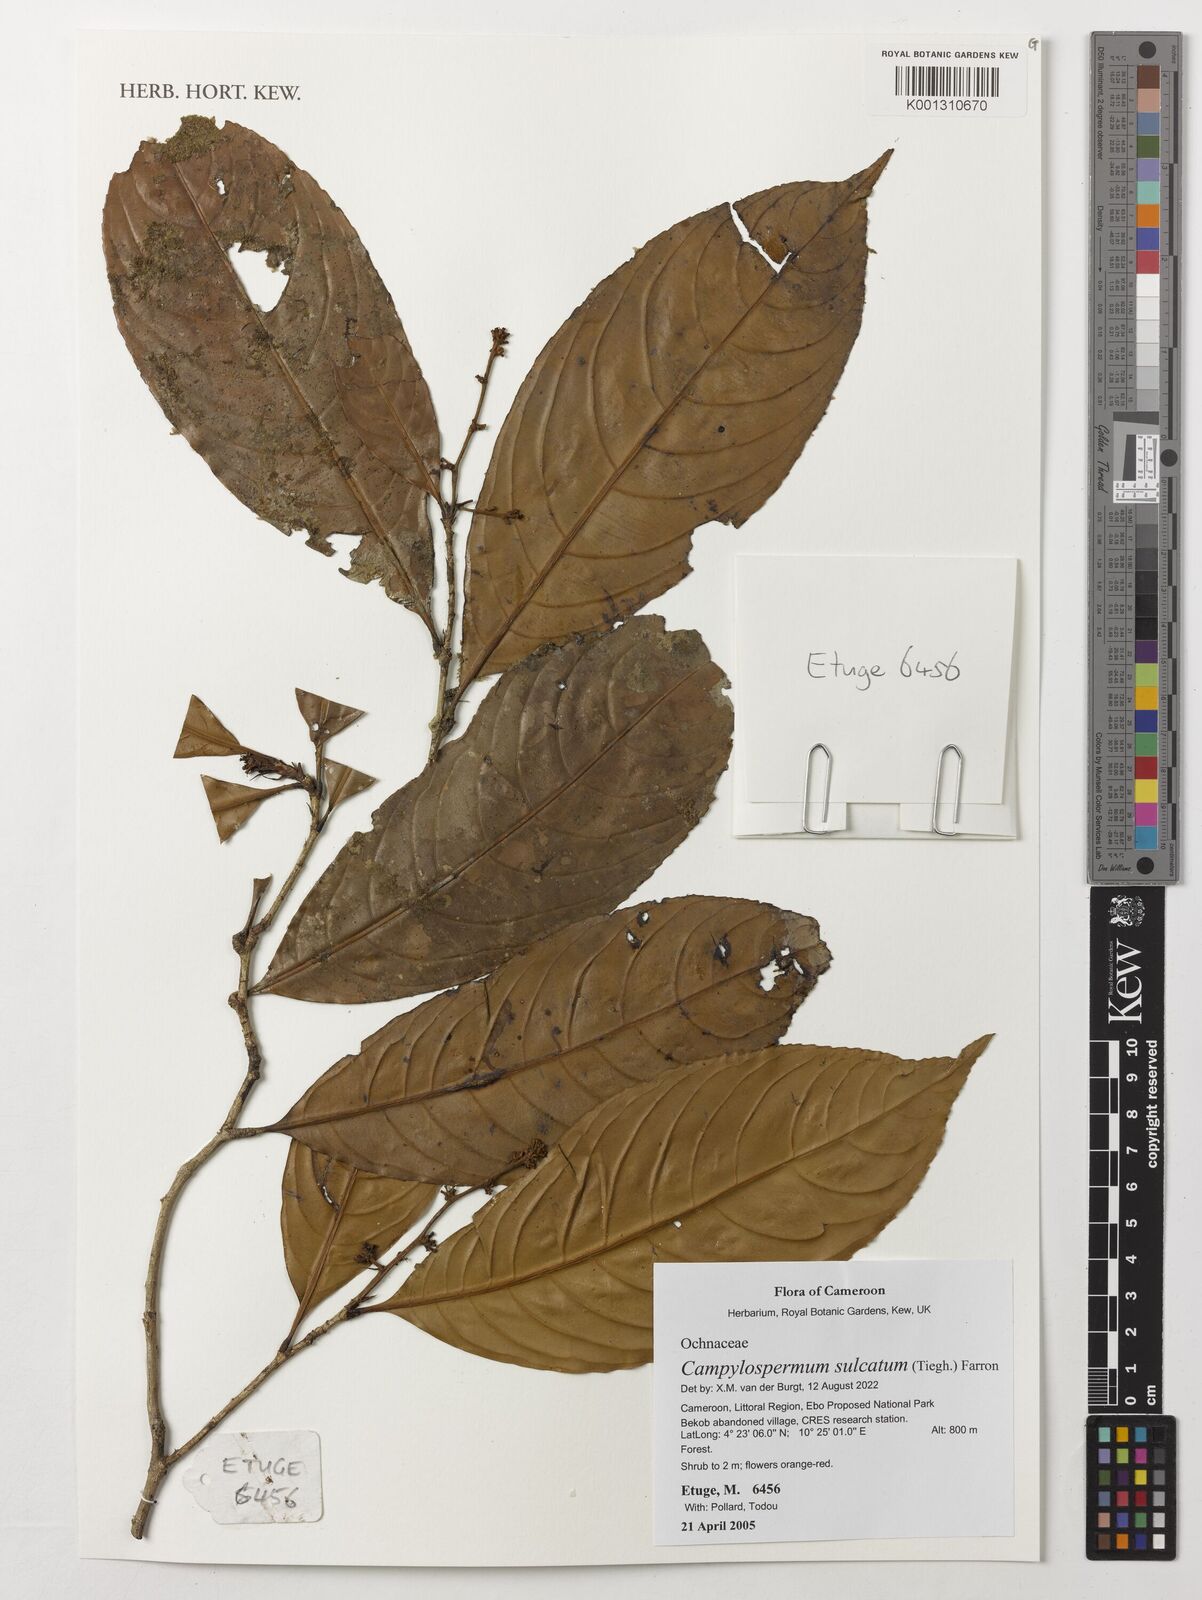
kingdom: Plantae
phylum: Tracheophyta
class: Magnoliopsida
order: Malpighiales
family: Ochnaceae
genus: Campylospermum
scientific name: Campylospermum sulcatum
